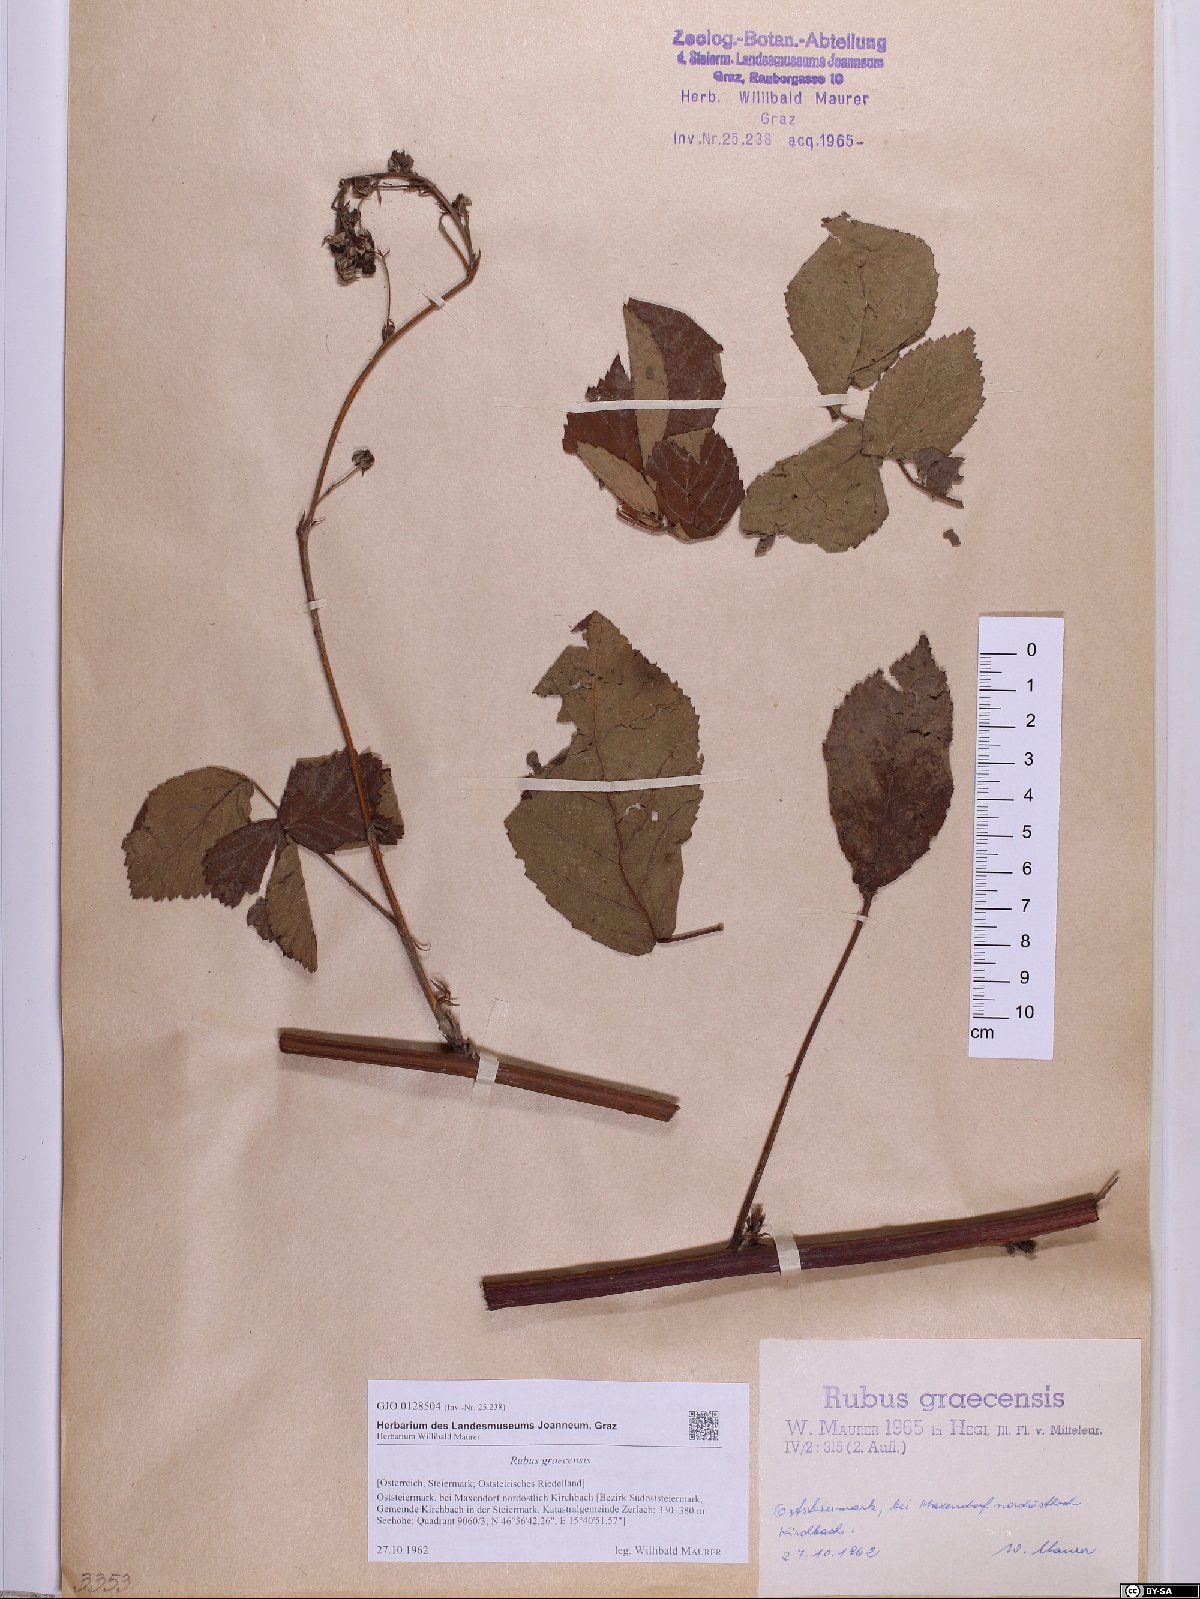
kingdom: Plantae
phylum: Tracheophyta
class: Magnoliopsida
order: Rosales
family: Rosaceae
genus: Rubus
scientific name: Rubus graecensis
